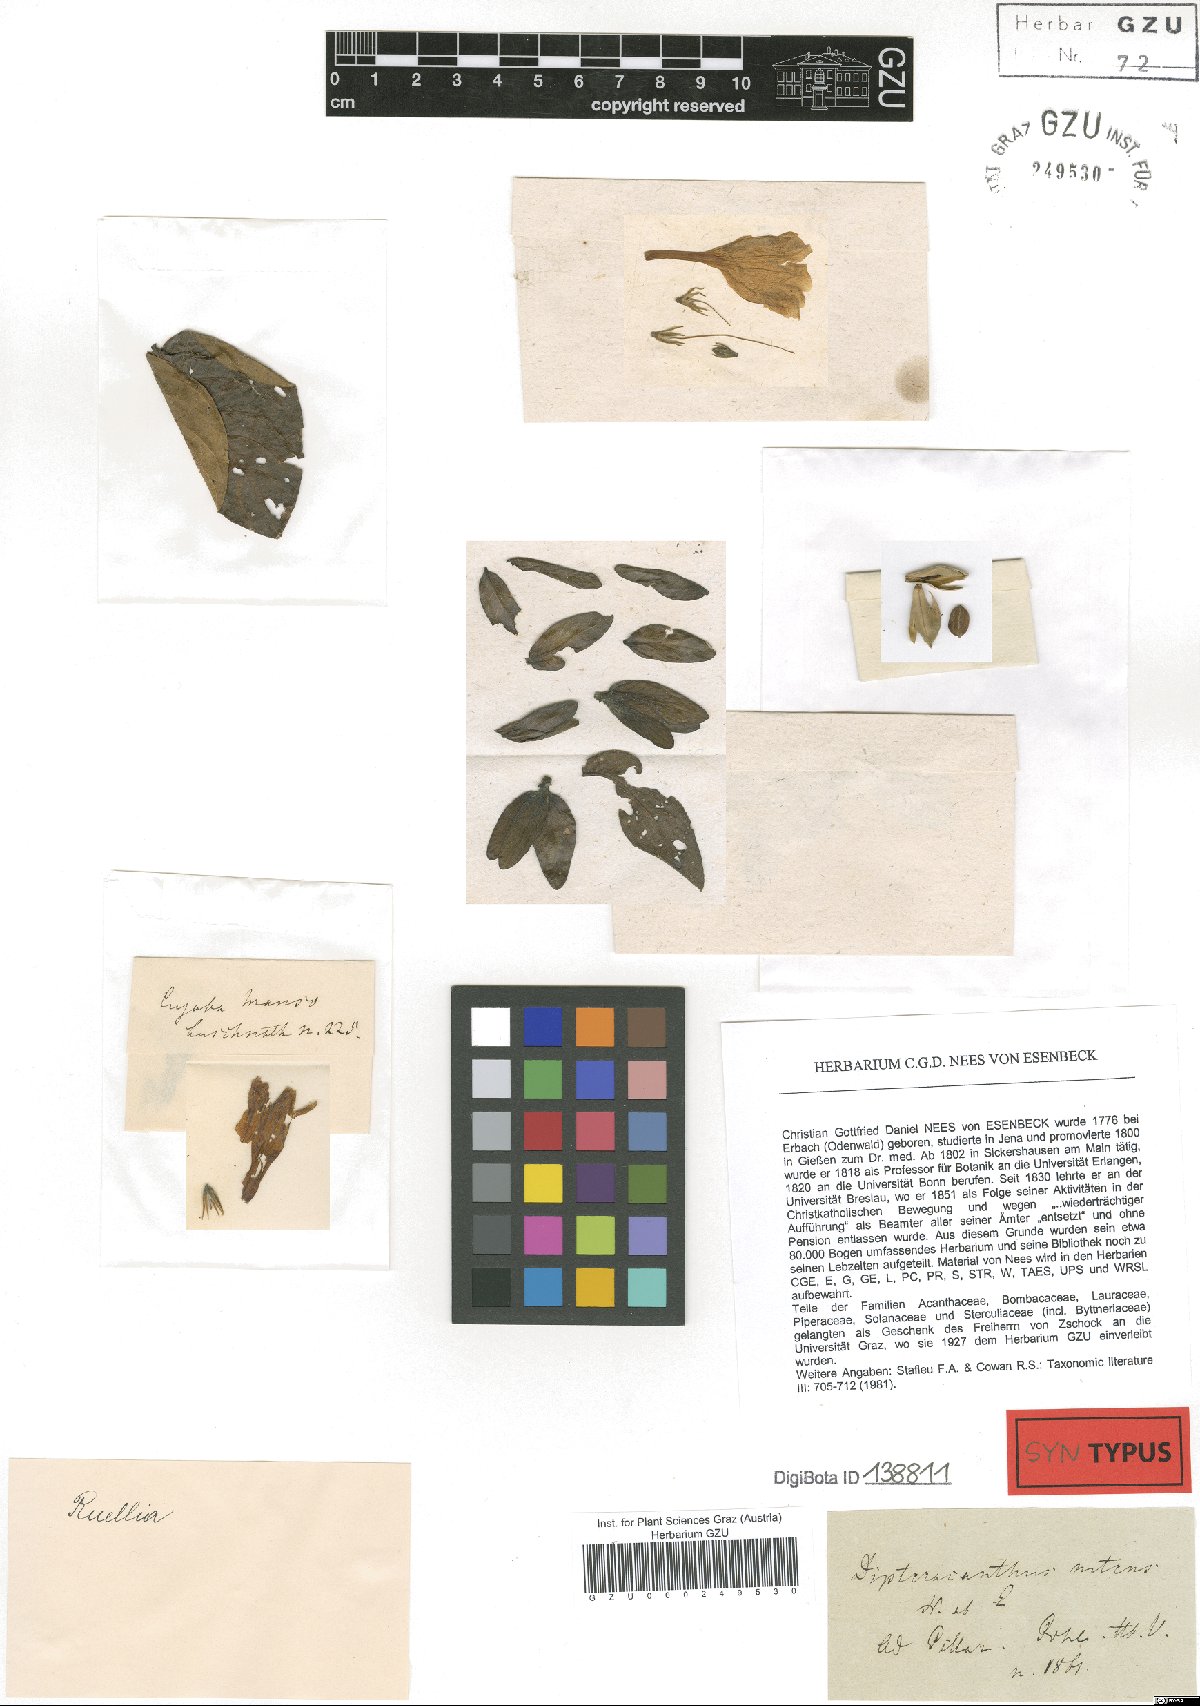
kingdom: Plantae
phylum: Tracheophyta
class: Magnoliopsida
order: Lamiales
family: Acanthaceae
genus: Ruellia
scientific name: Ruellia nitens
